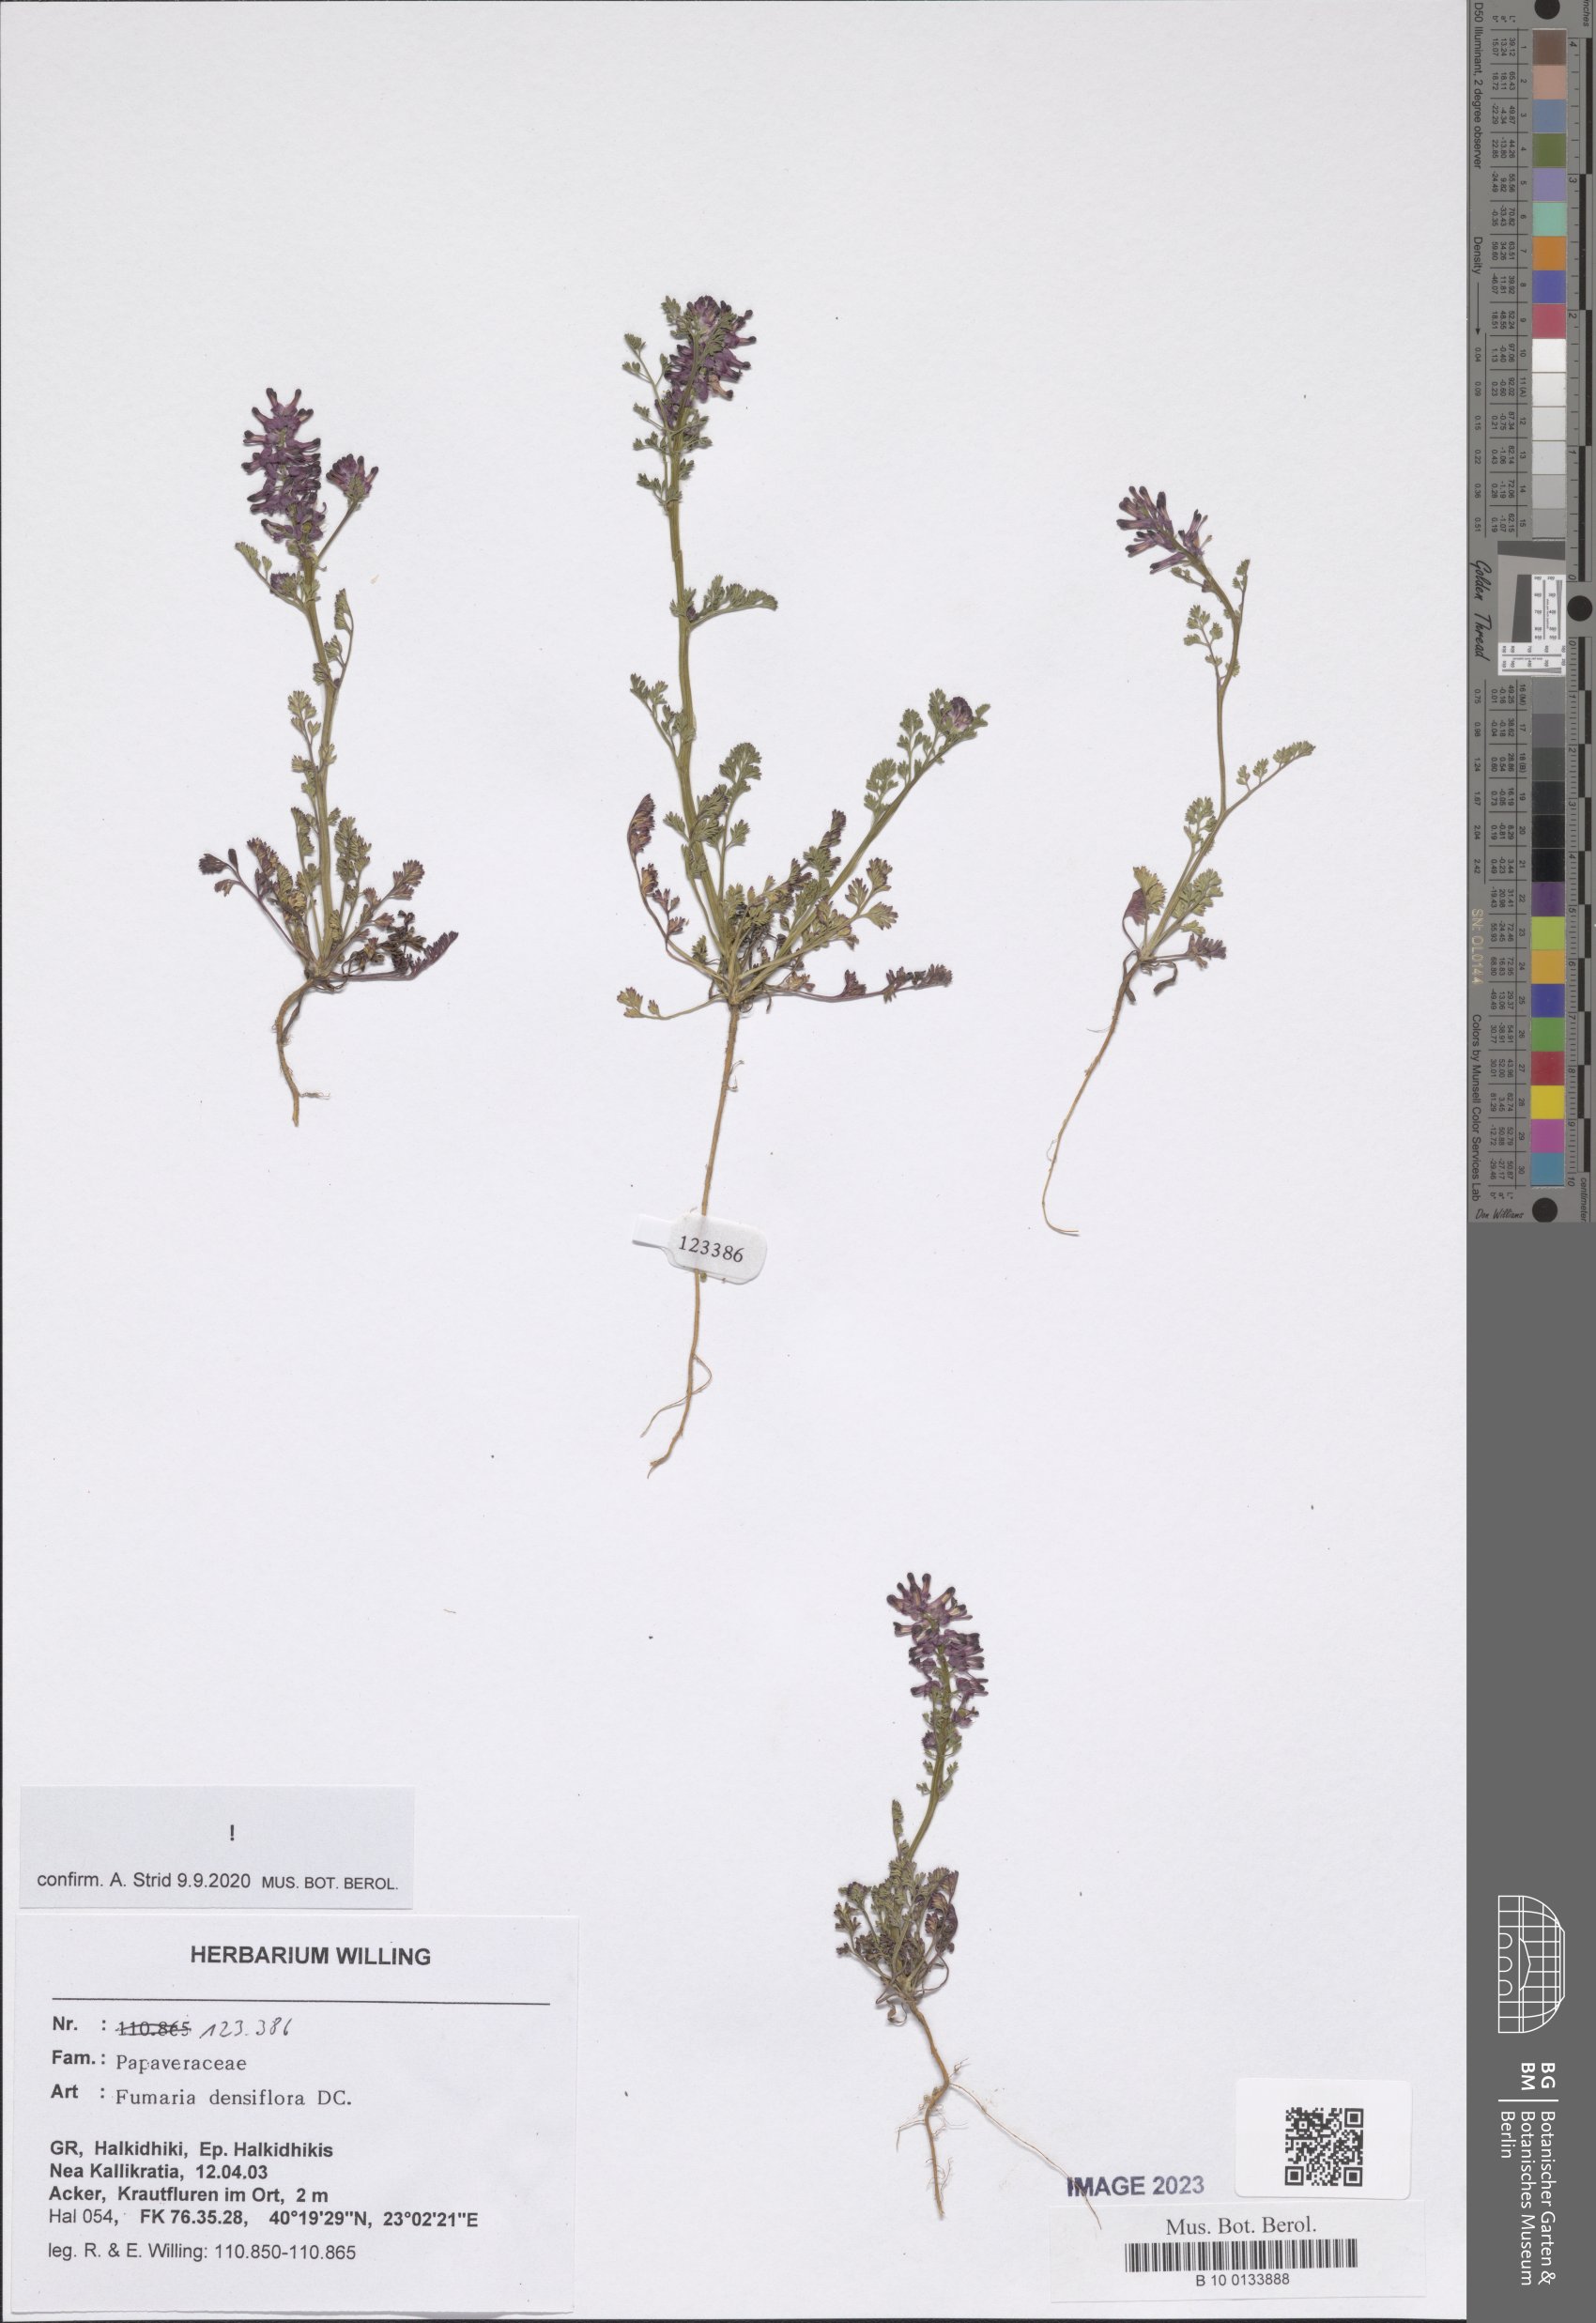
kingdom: Plantae
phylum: Tracheophyta
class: Magnoliopsida
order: Ranunculales
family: Papaveraceae
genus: Fumaria
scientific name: Fumaria densiflora
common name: Dense-flowered fumitory
